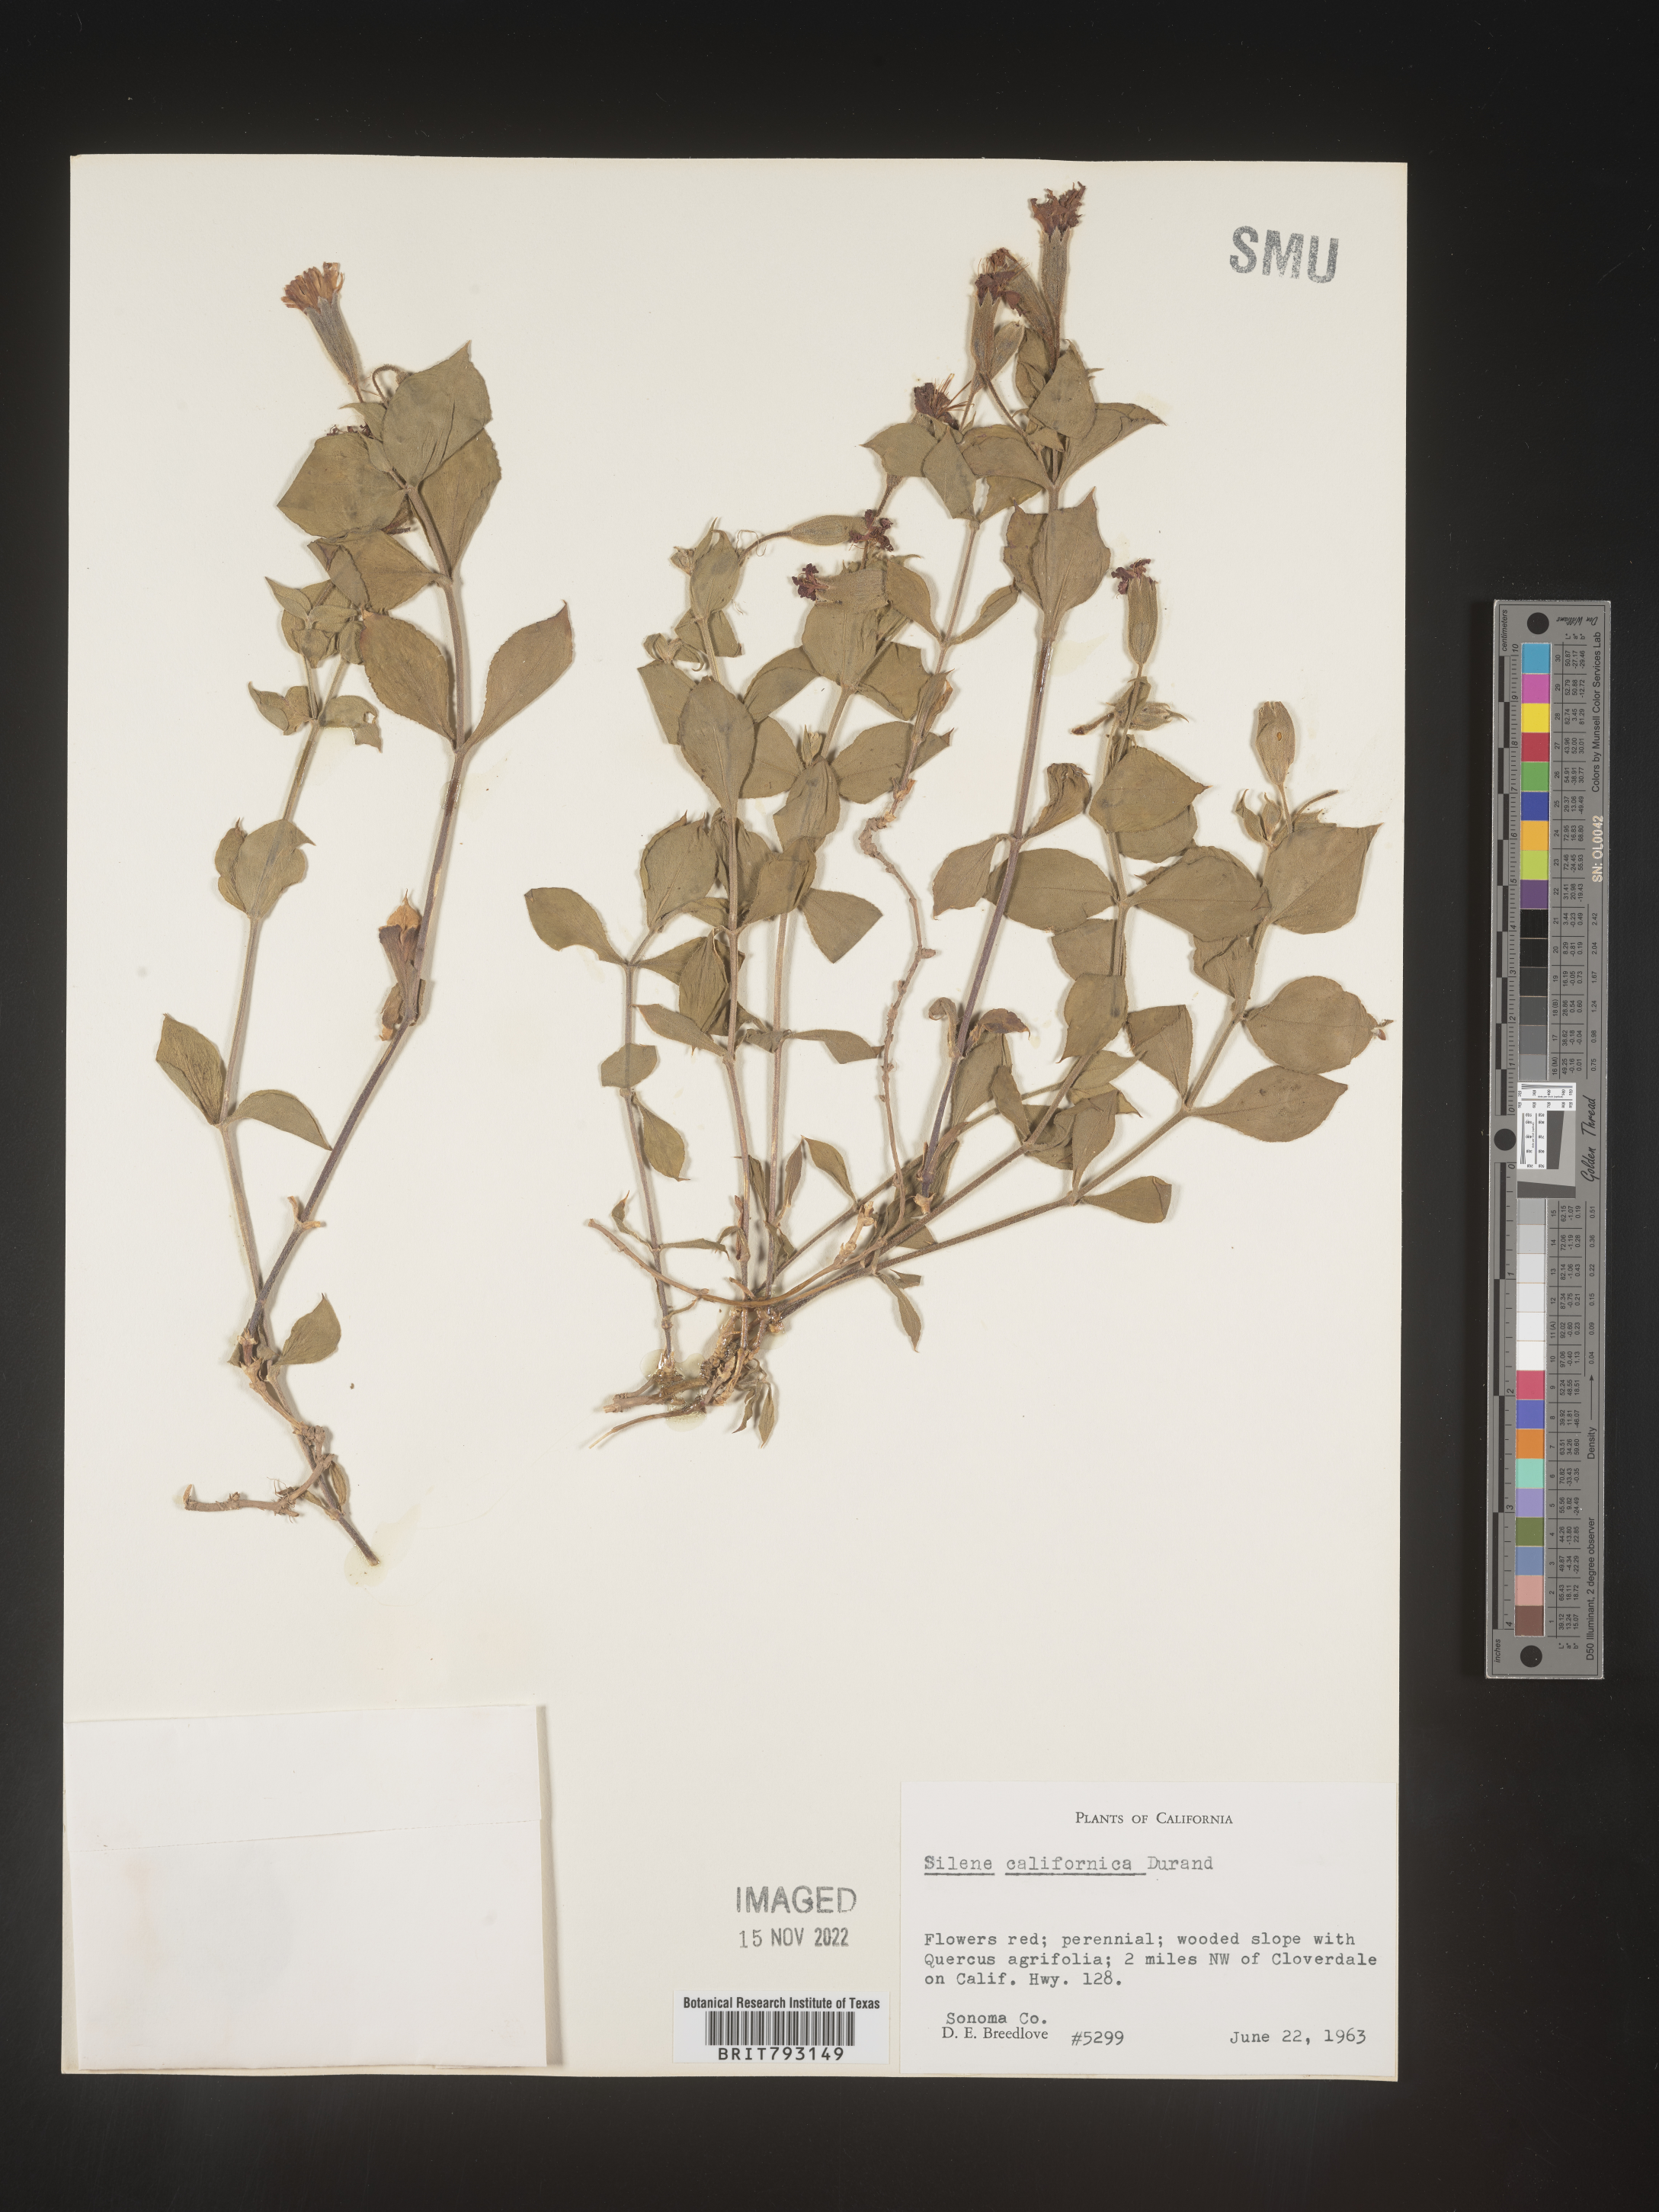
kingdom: Plantae
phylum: Tracheophyta
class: Magnoliopsida
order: Caryophyllales
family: Caryophyllaceae
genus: Silene
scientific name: Silene laciniata
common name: Indian-pink
